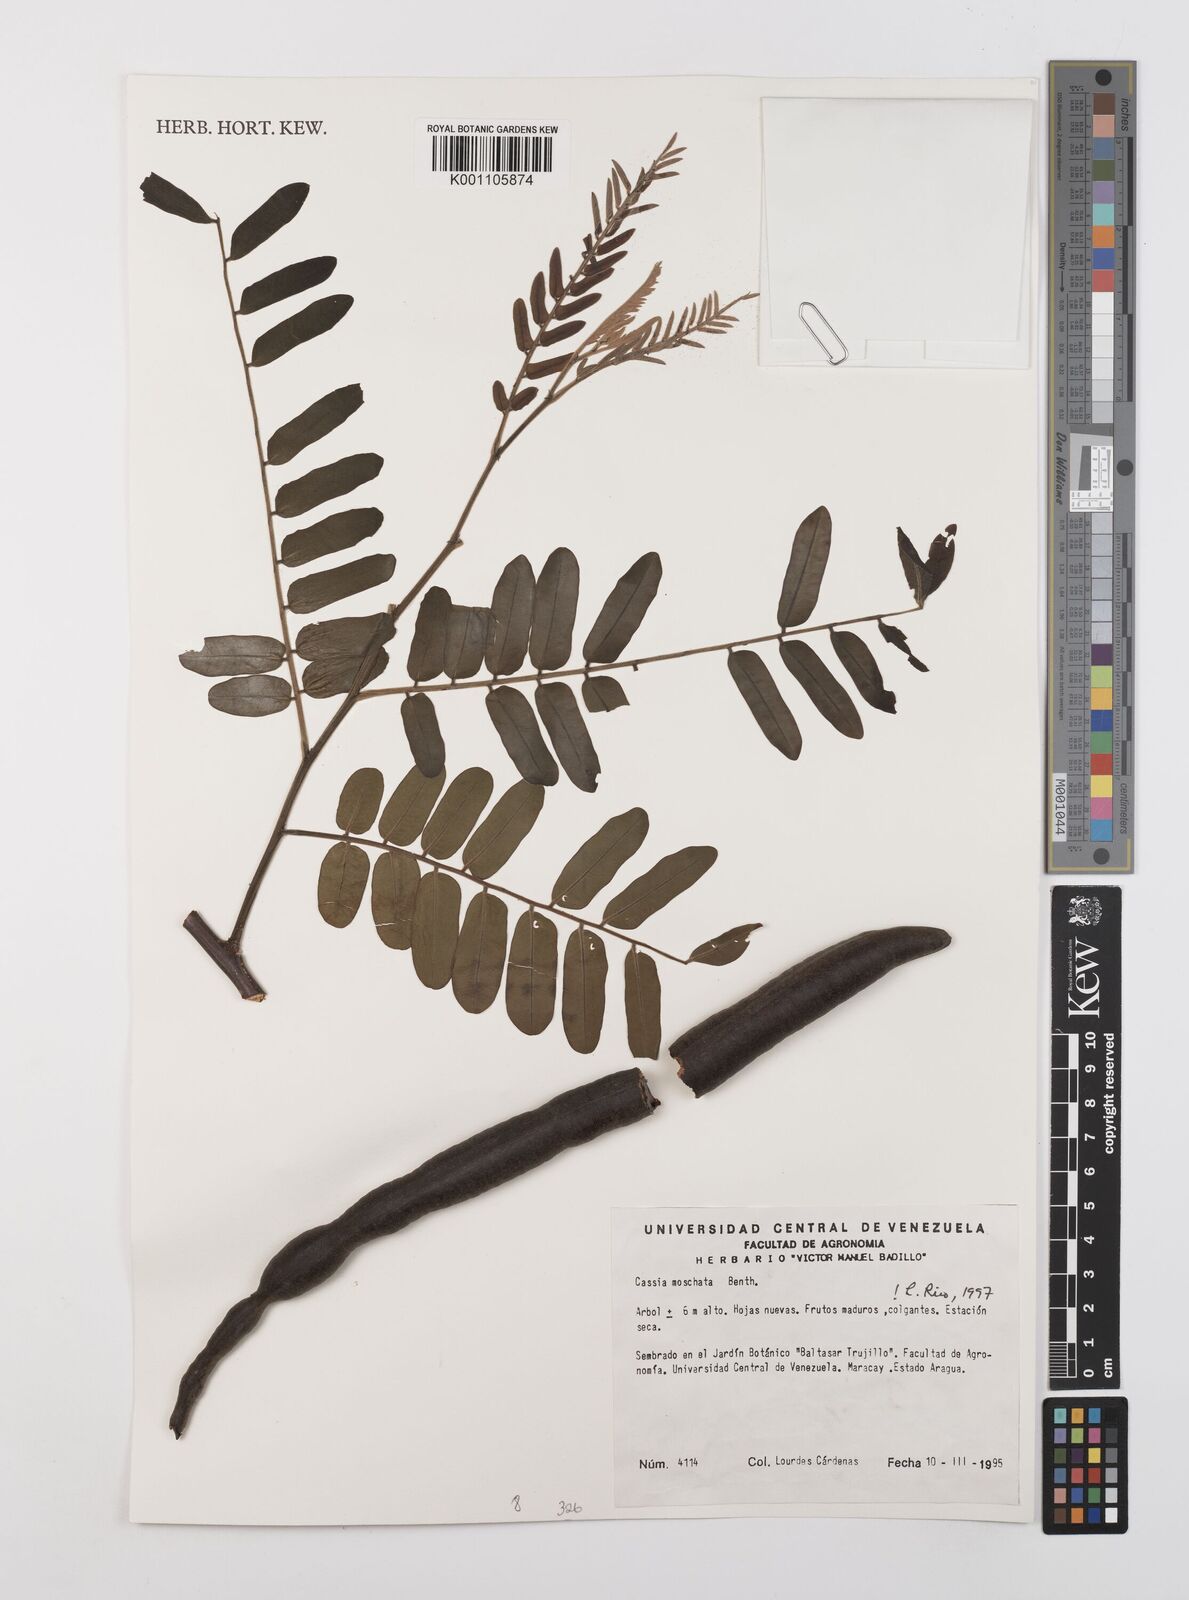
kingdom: Plantae
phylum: Tracheophyta
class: Magnoliopsida
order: Fabales
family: Fabaceae
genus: Cassia
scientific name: Cassia moschata
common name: Bronze shower tree
